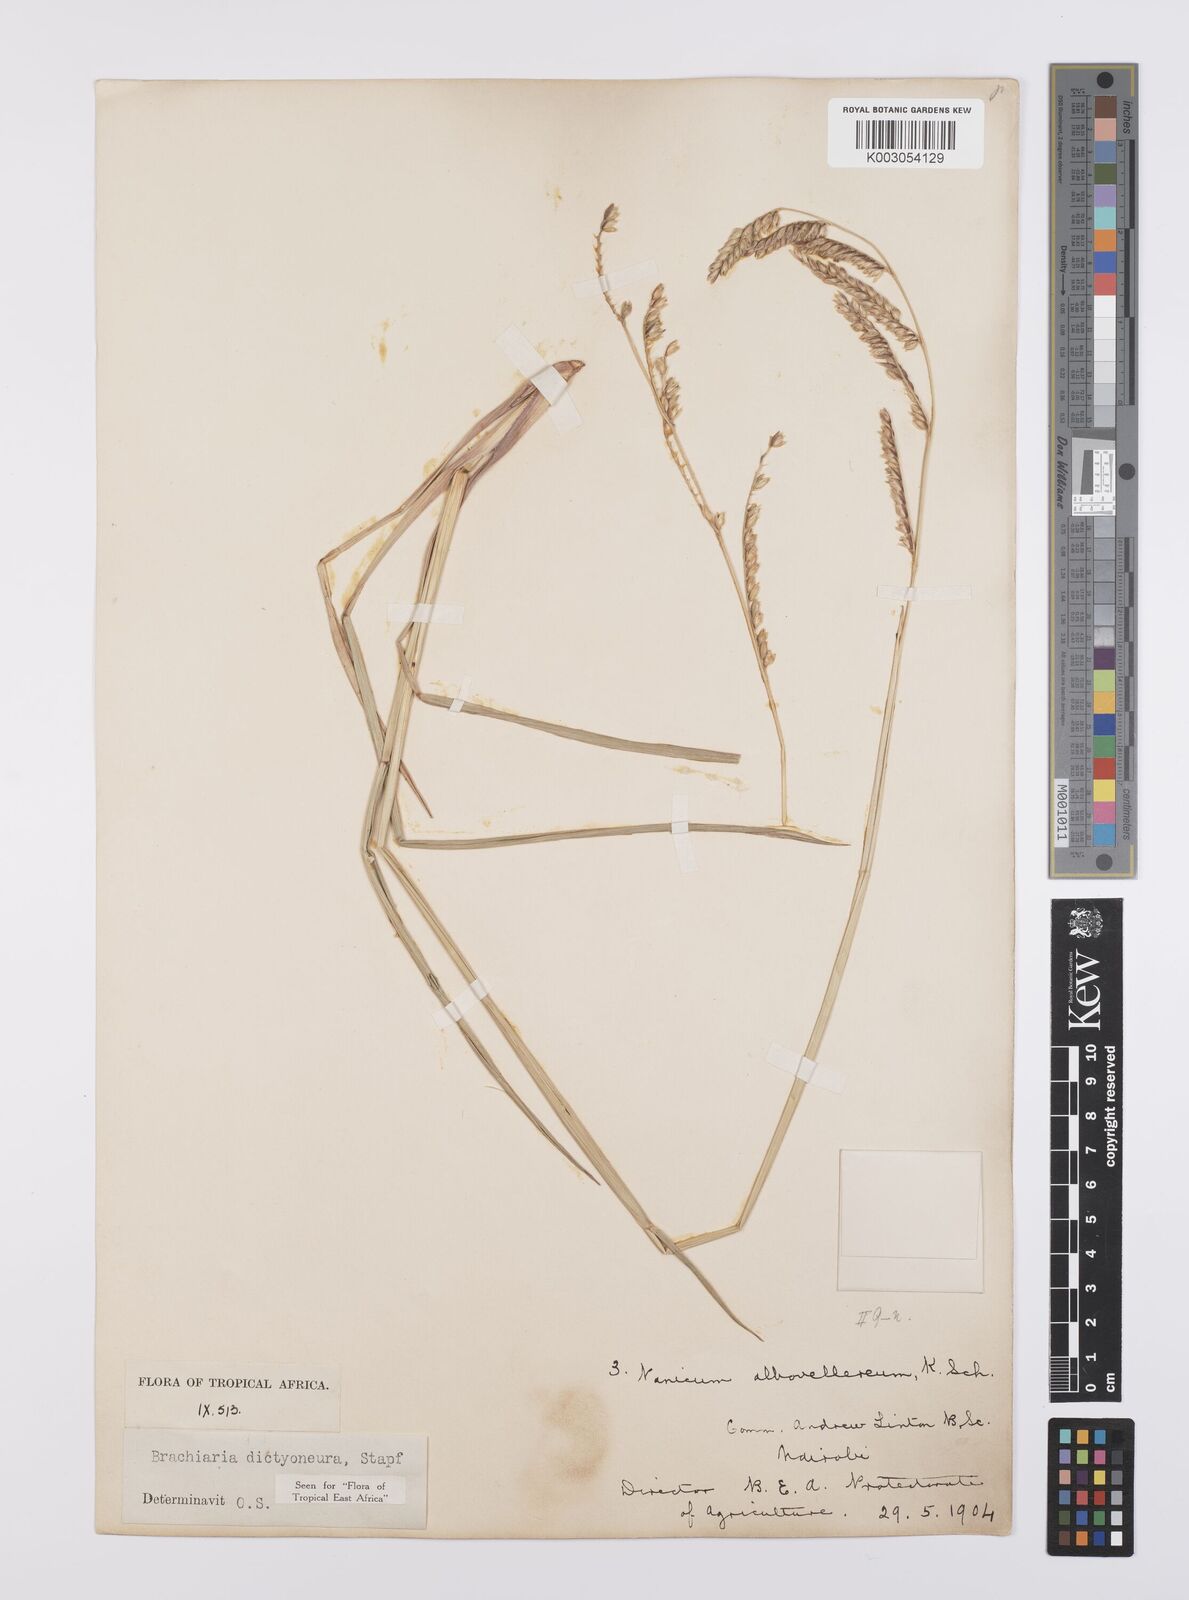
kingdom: Plantae
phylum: Tracheophyta
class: Liliopsida
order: Poales
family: Poaceae
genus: Urochloa
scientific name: Urochloa dictyoneura
